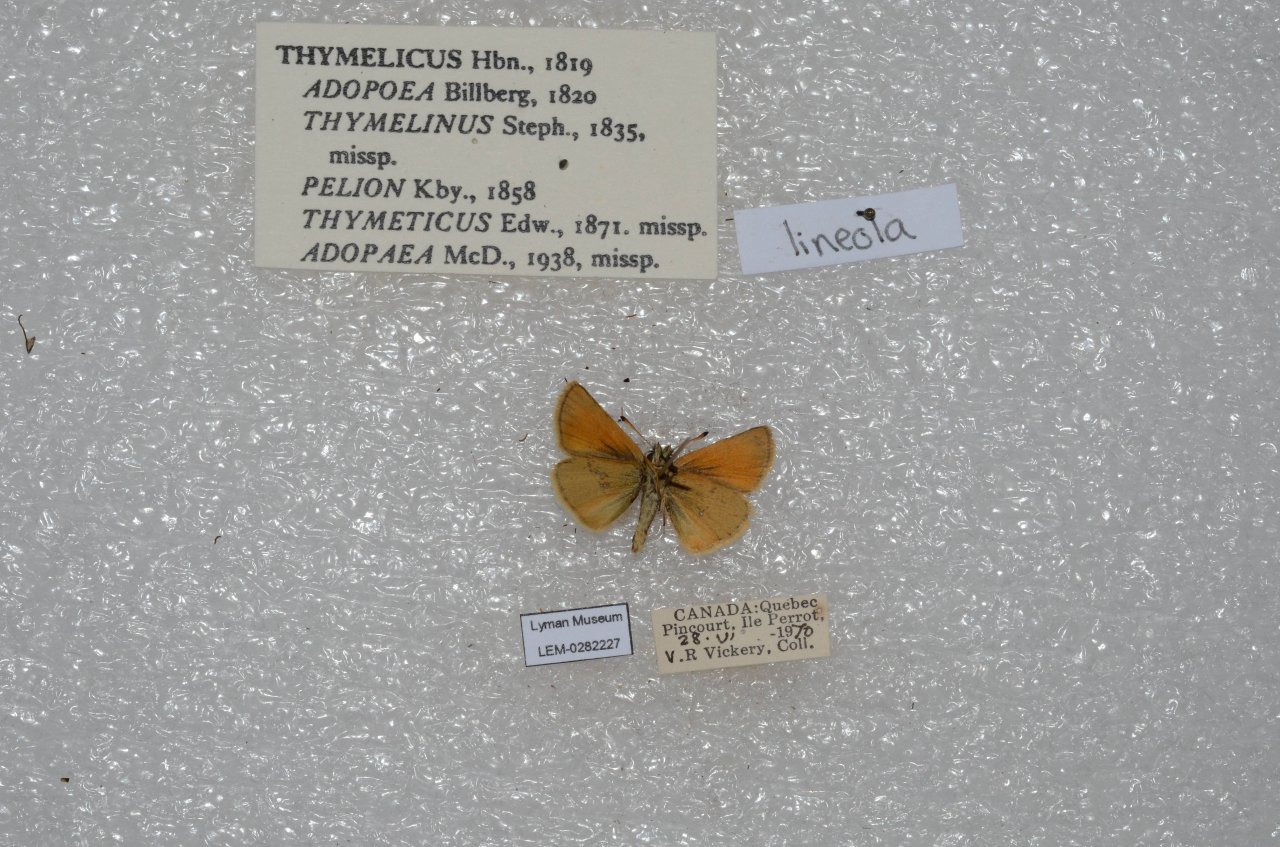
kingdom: Animalia
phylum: Arthropoda
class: Insecta
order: Lepidoptera
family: Hesperiidae
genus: Thymelicus
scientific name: Thymelicus lineola
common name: European Skipper
